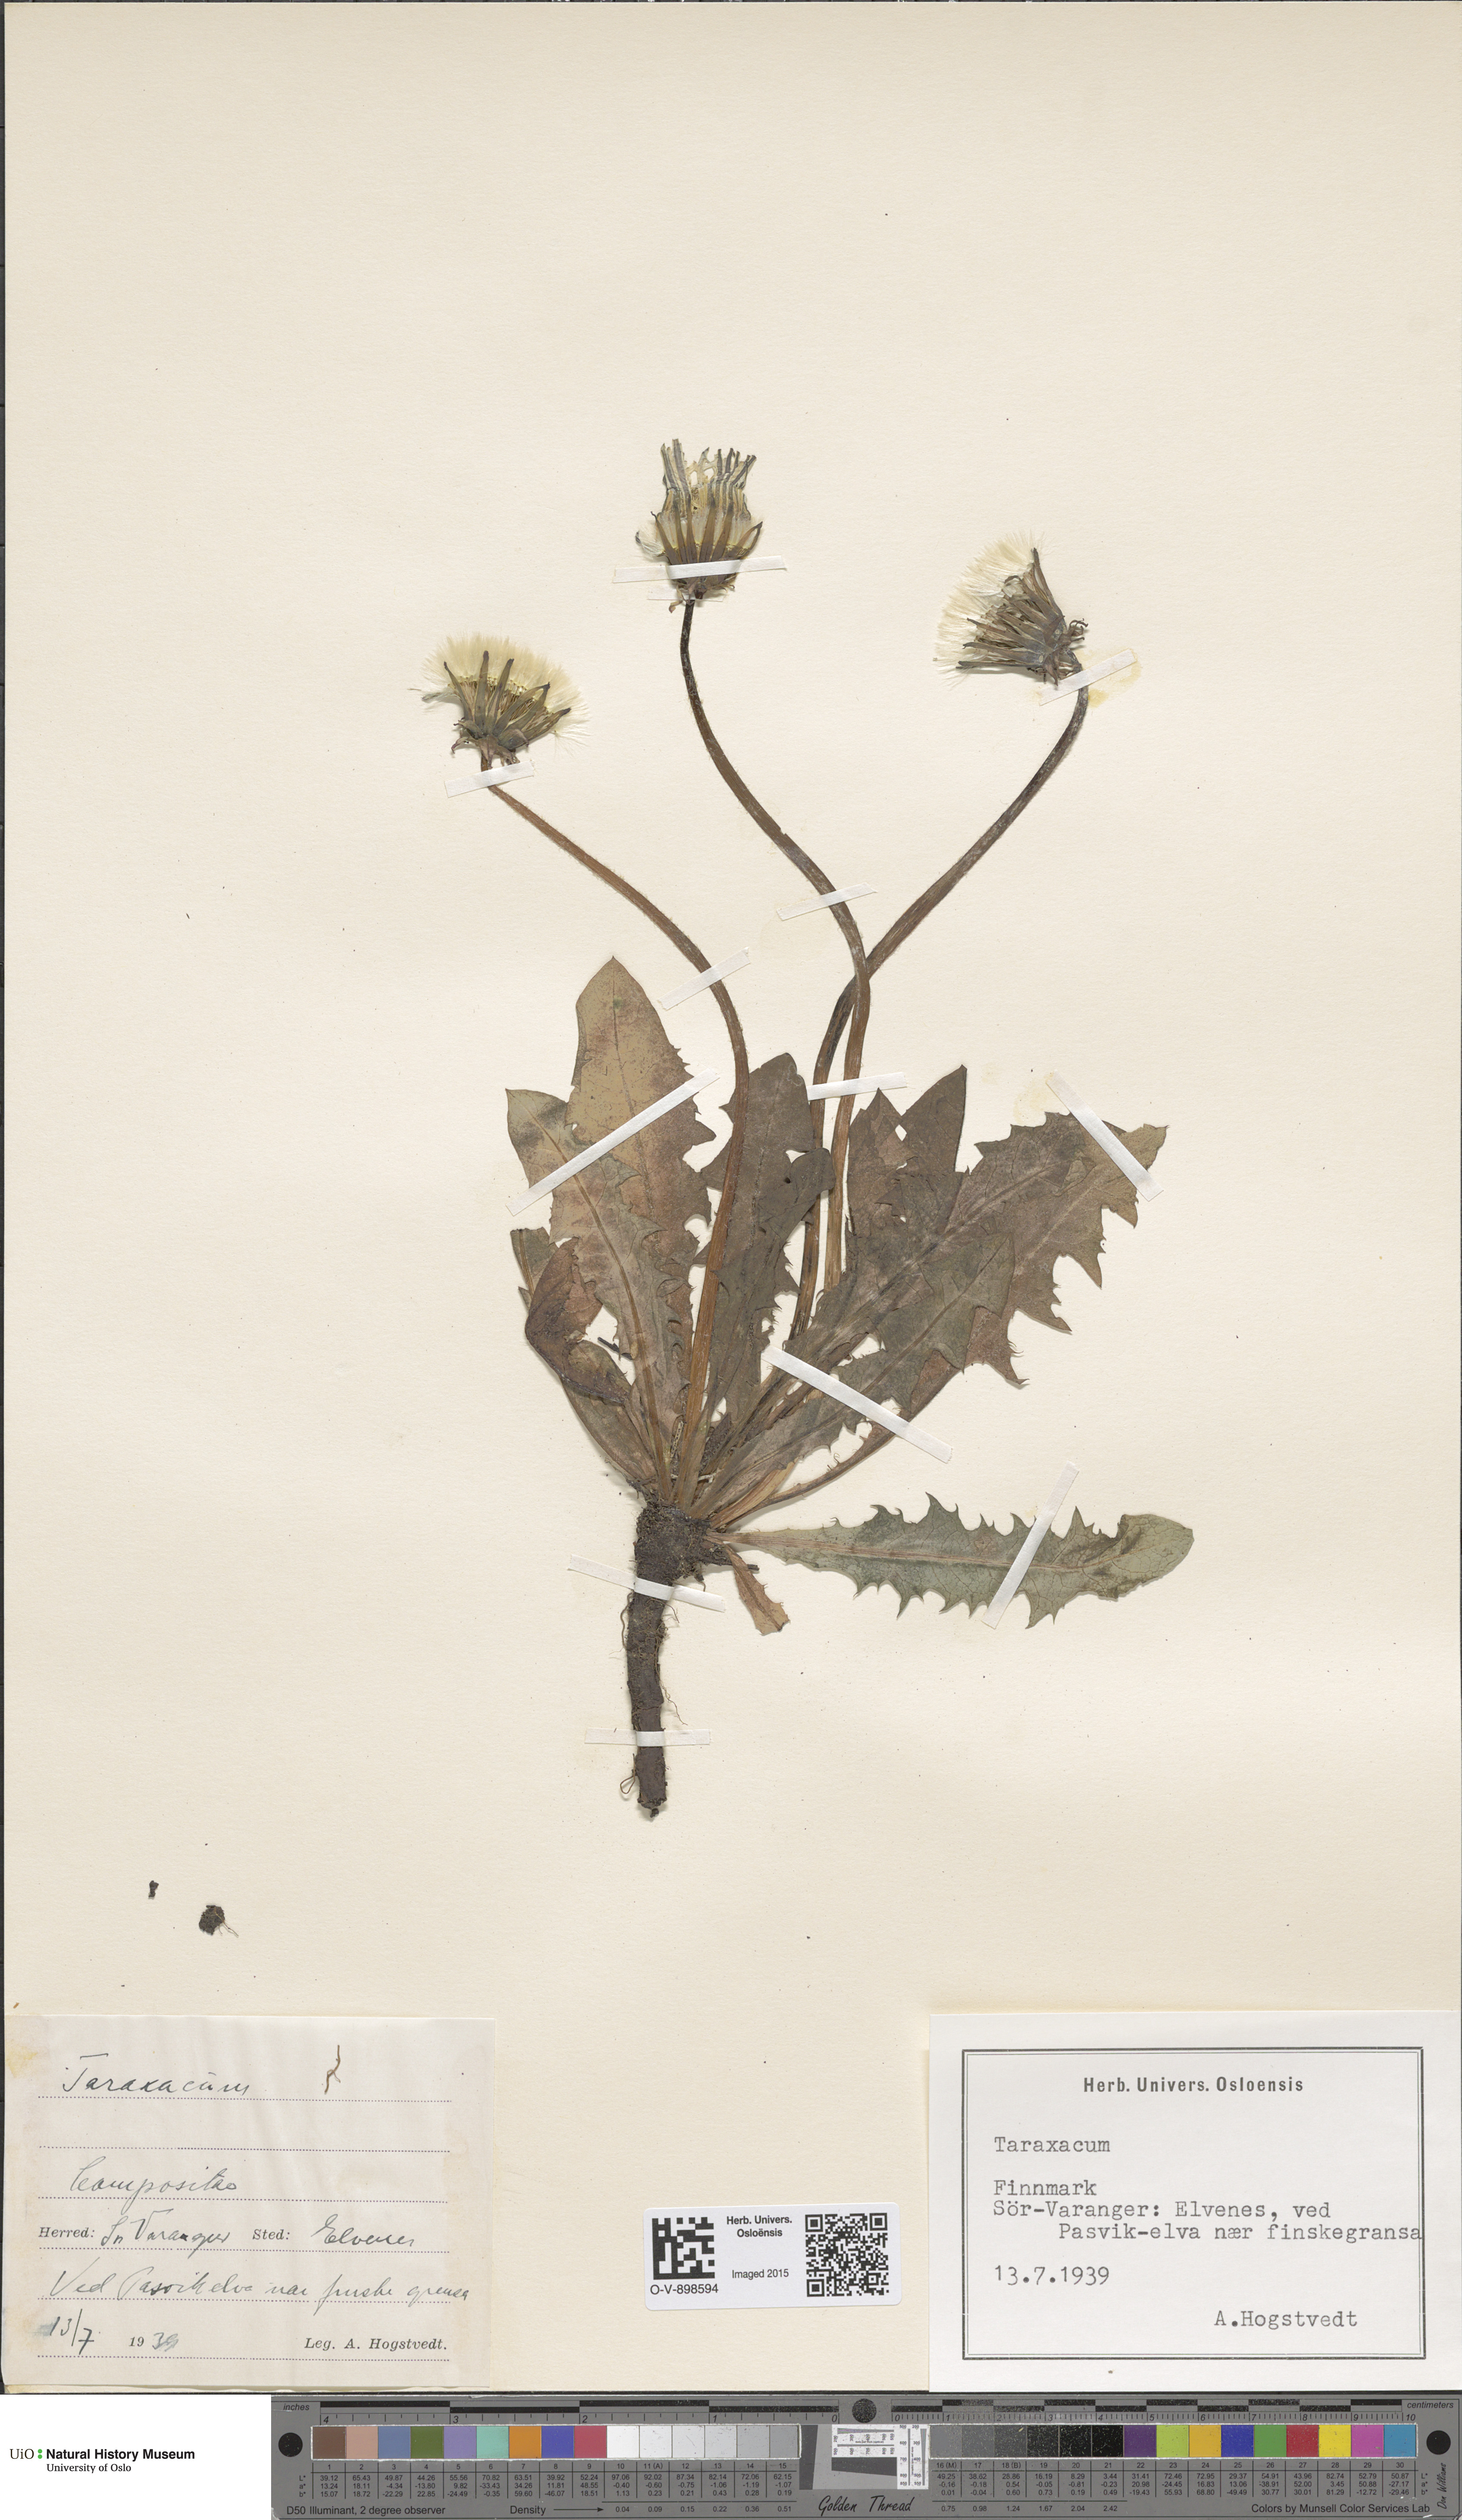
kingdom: Plantae
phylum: Tracheophyta
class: Magnoliopsida
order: Asterales
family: Asteraceae
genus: Taraxacum
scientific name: Taraxacum
